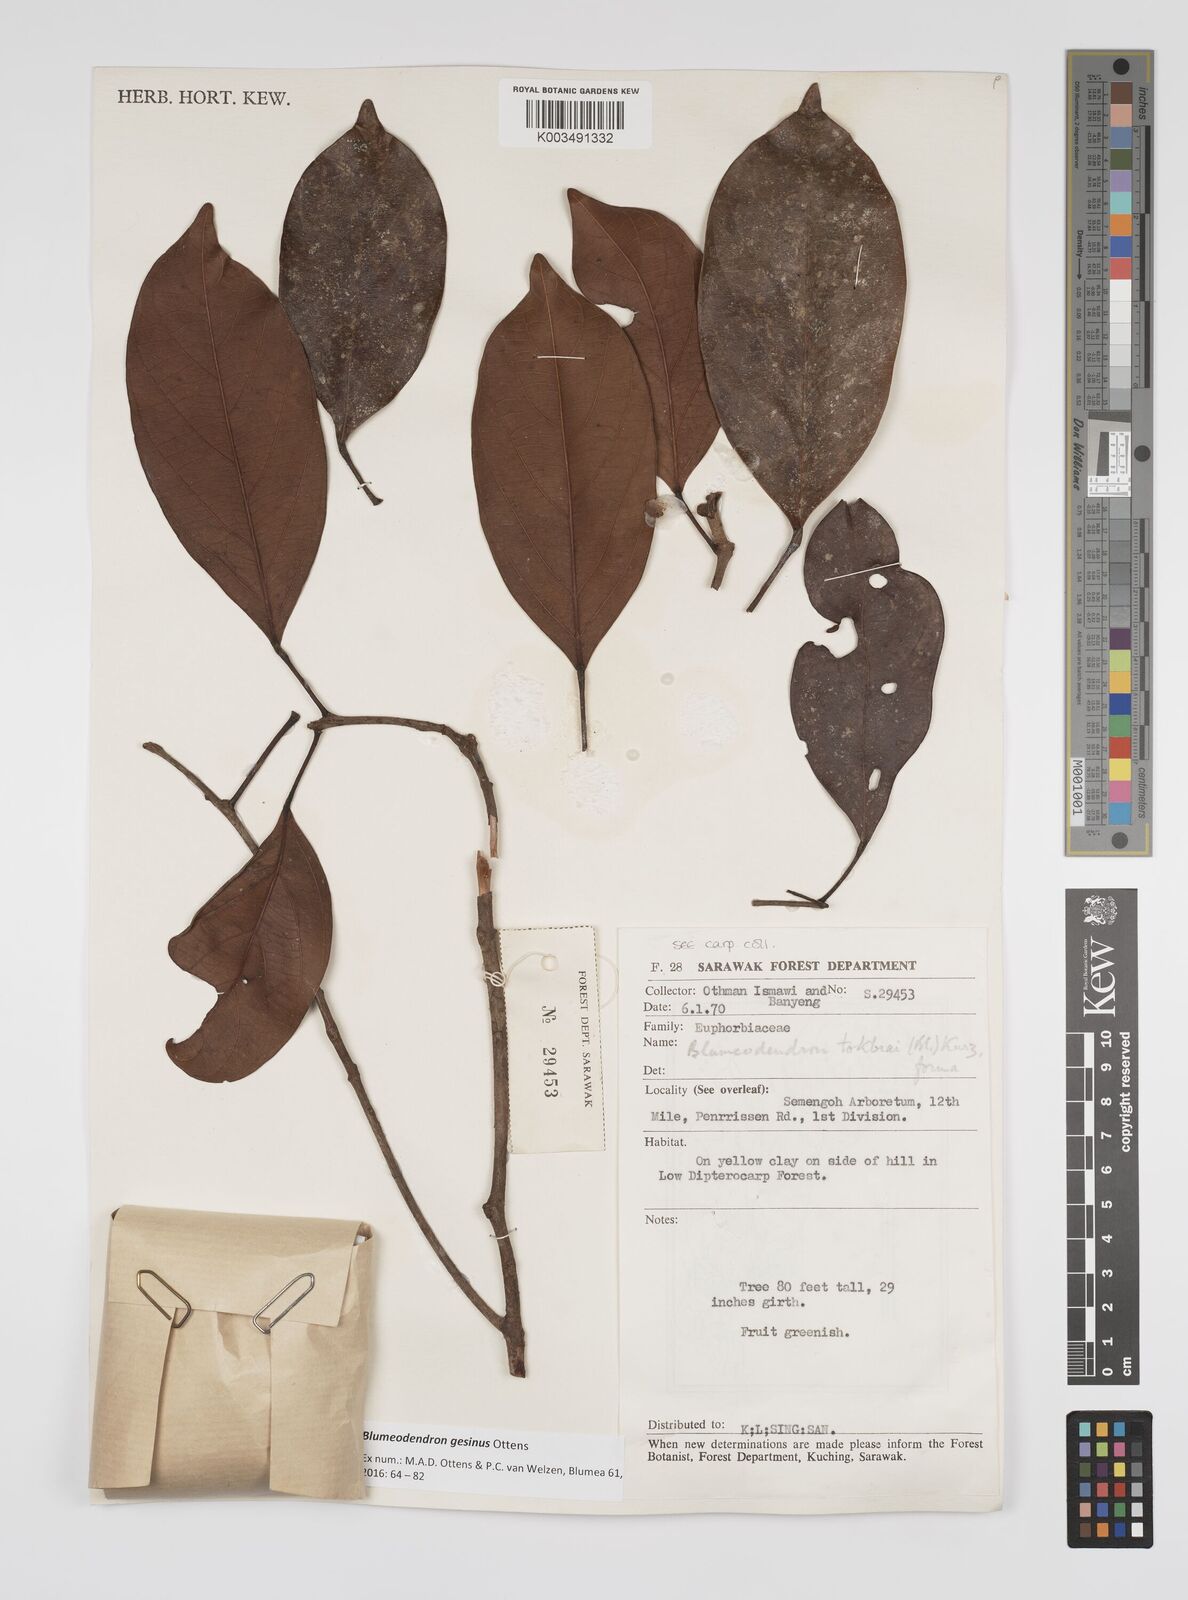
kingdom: Plantae
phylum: Tracheophyta
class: Magnoliopsida
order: Malpighiales
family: Euphorbiaceae
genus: Blumeodendron
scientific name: Blumeodendron gesinus
